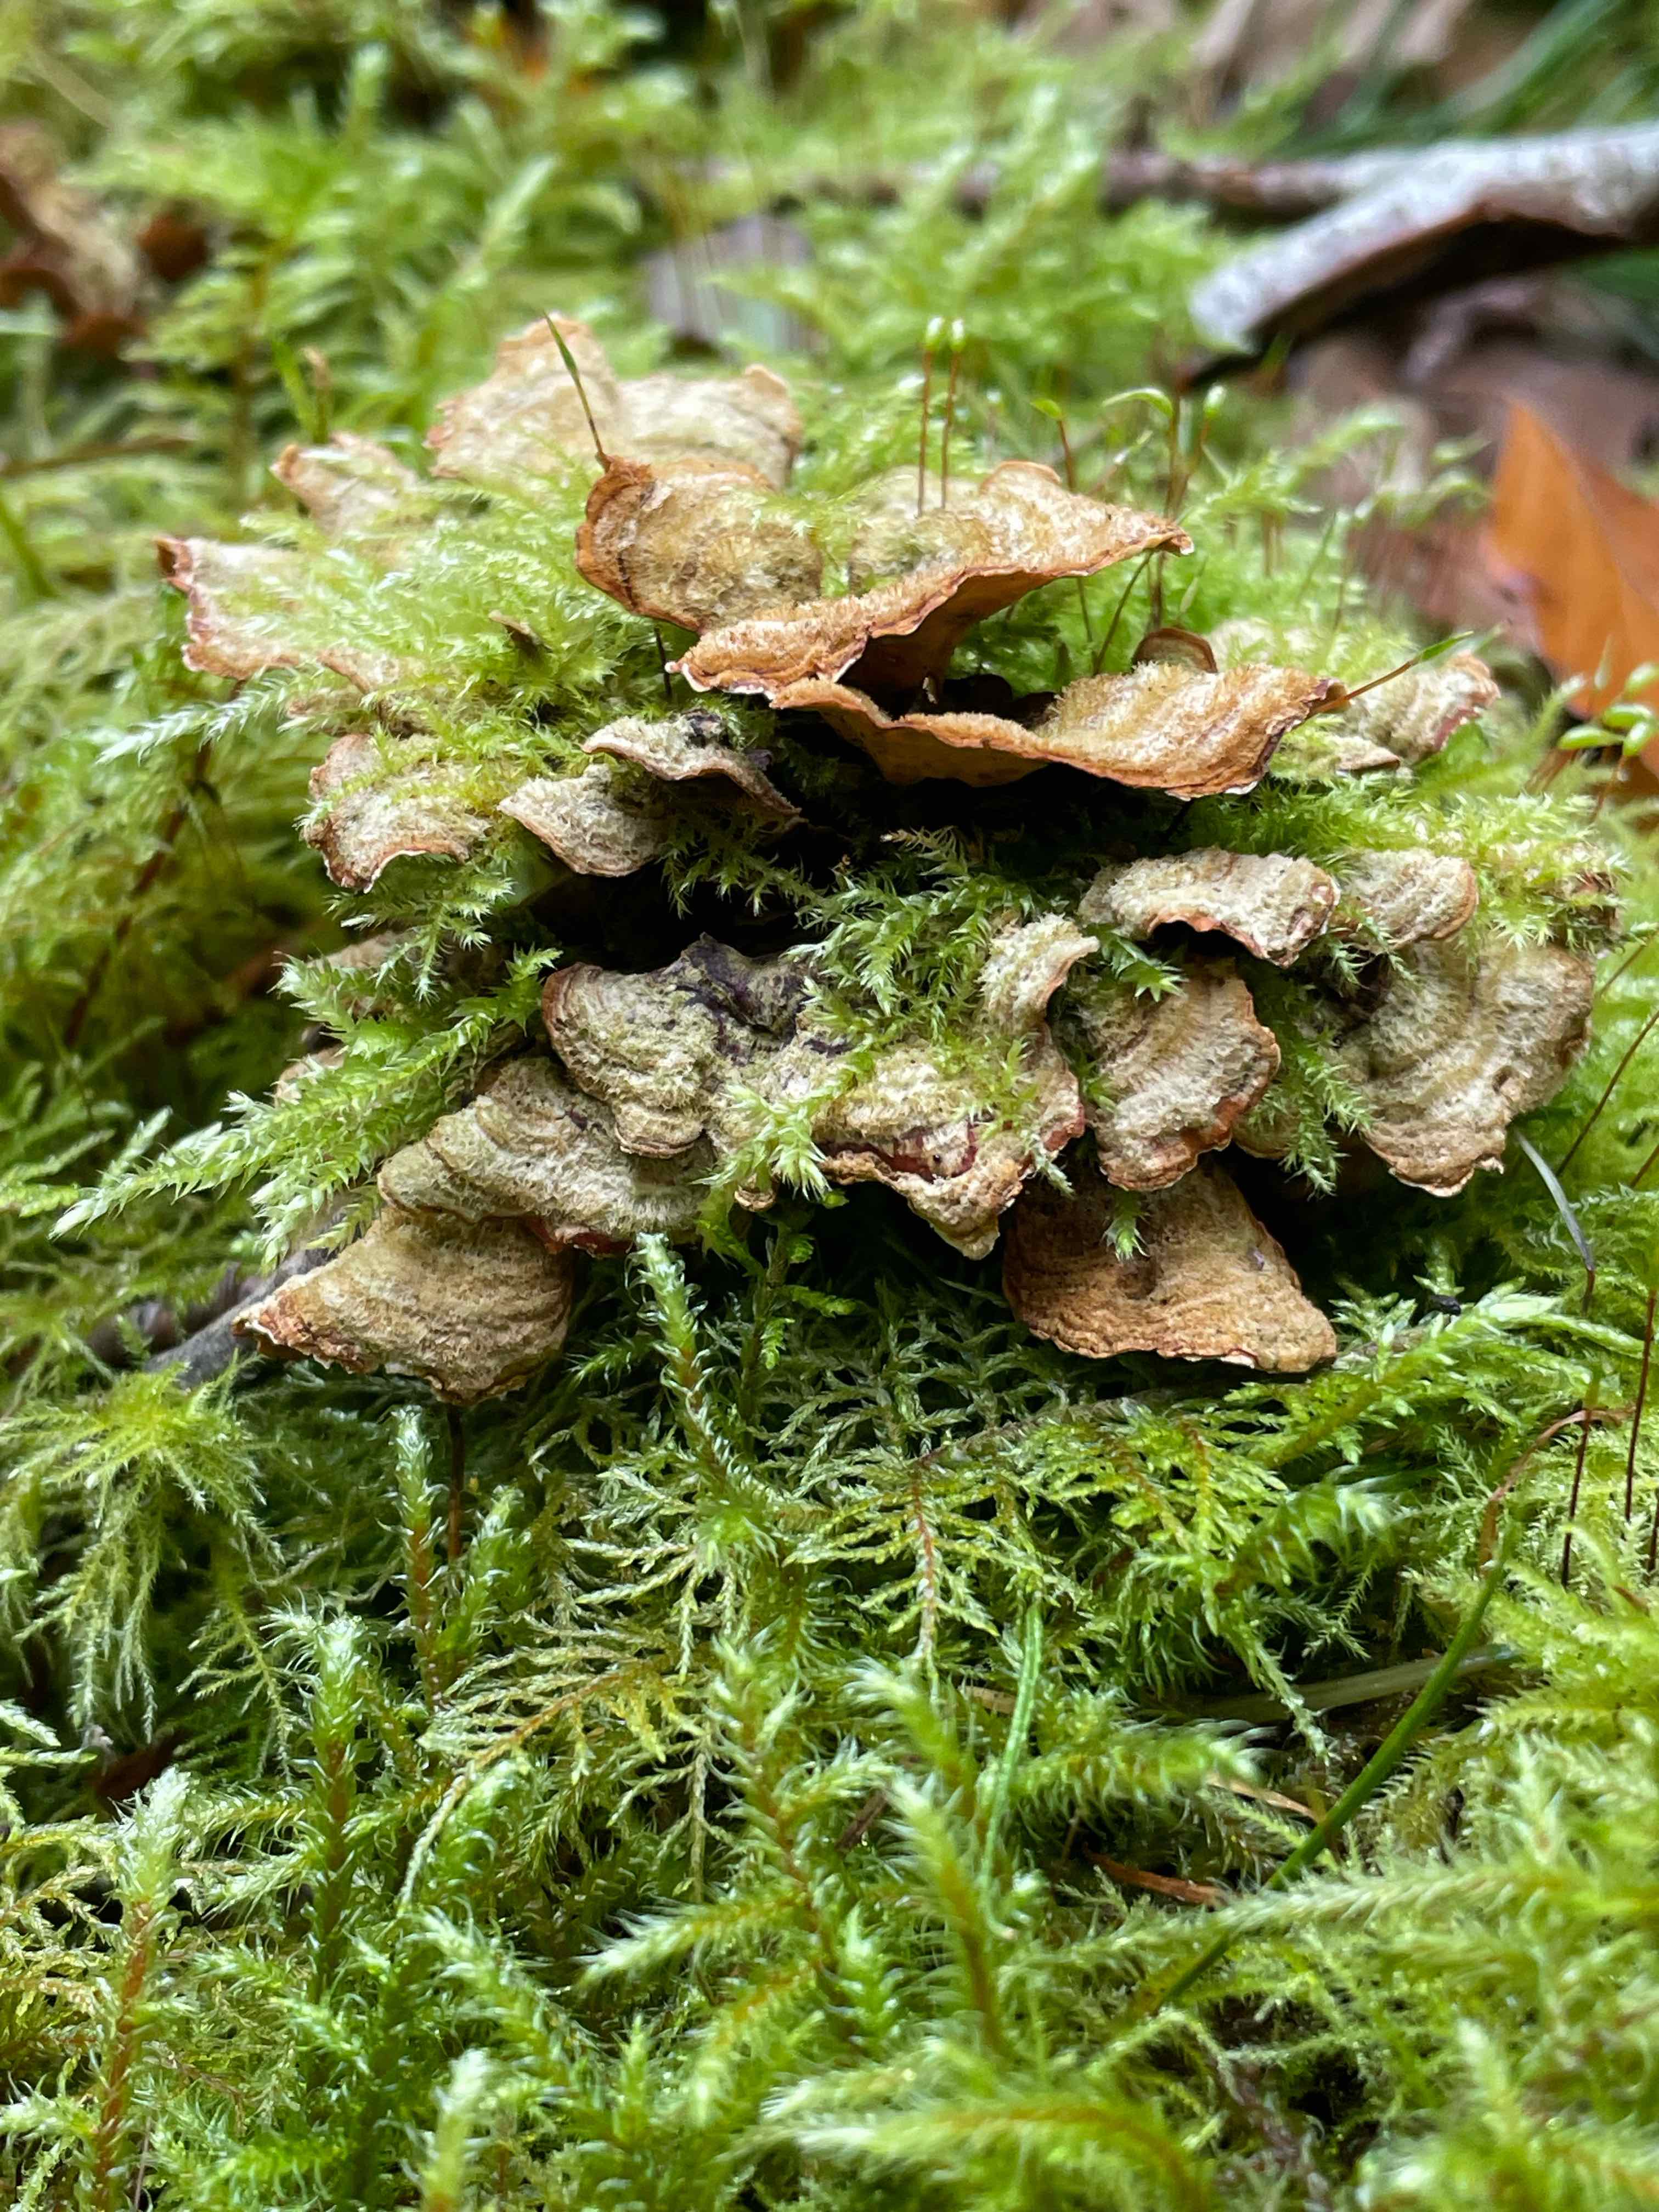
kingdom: Fungi
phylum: Basidiomycota
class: Agaricomycetes
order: Russulales
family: Stereaceae
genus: Stereum
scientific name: Stereum hirsutum
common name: håret lædersvamp
